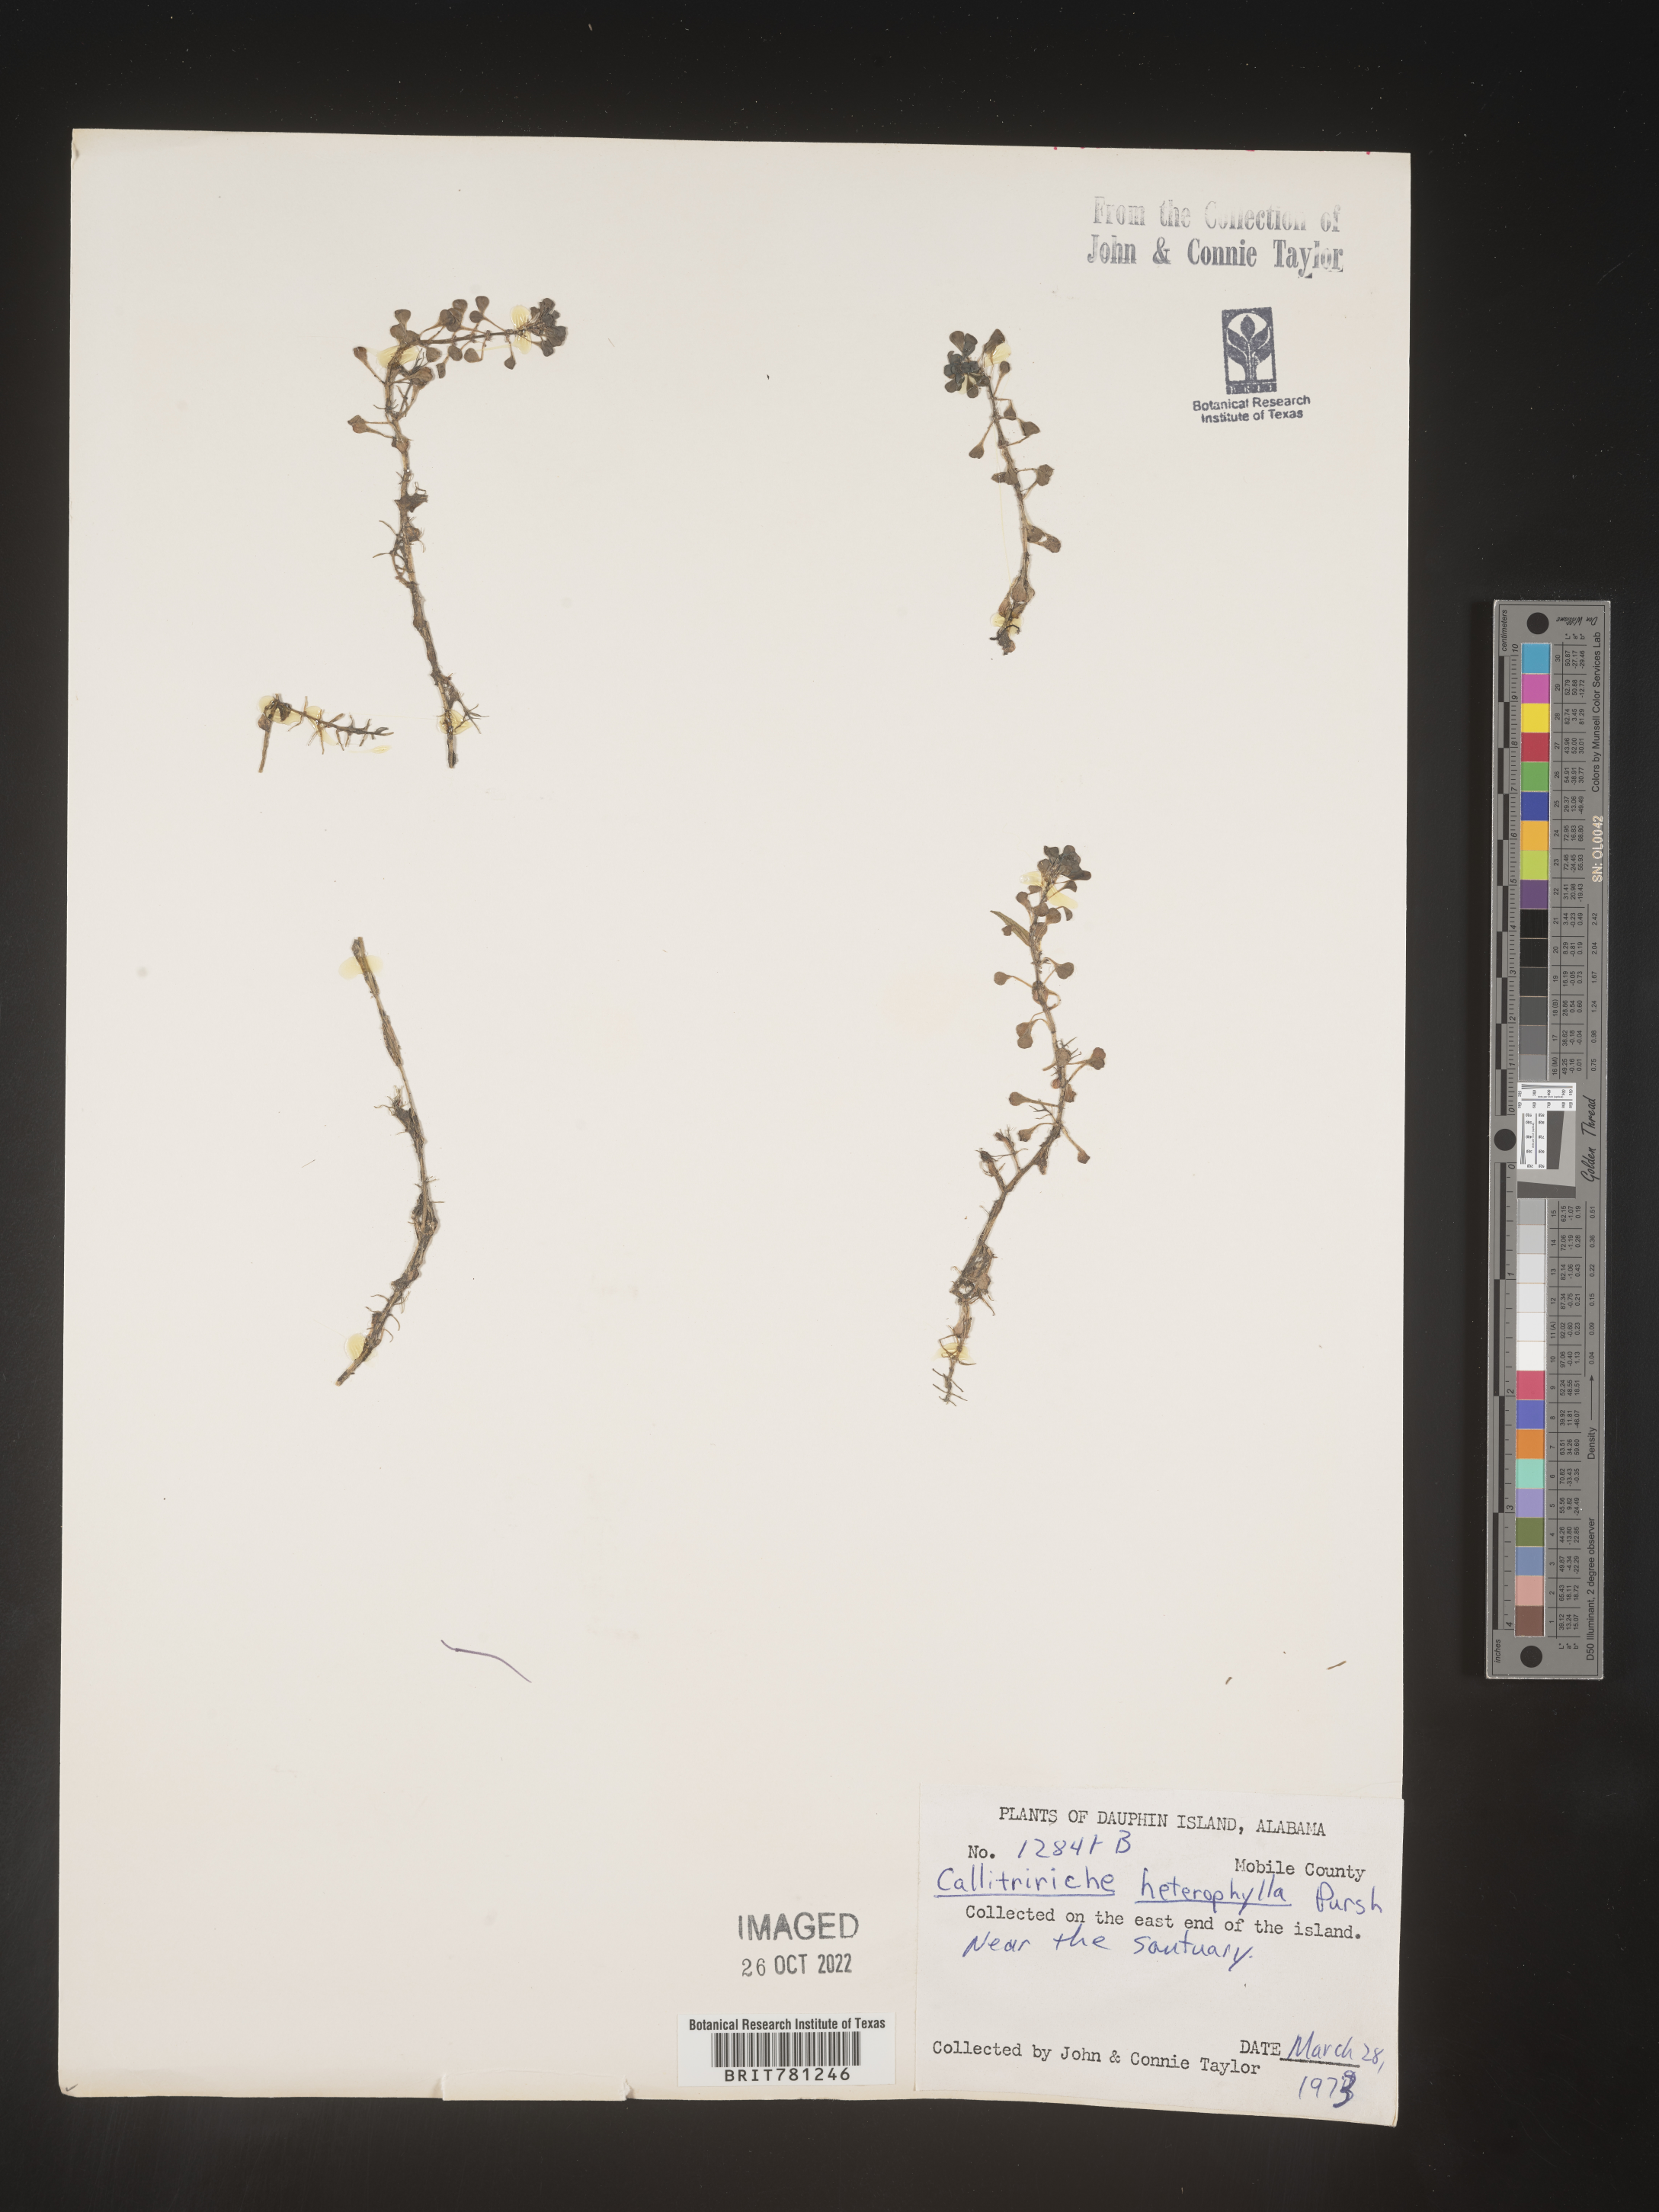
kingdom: Plantae
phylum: Tracheophyta
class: Magnoliopsida
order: Lamiales
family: Plantaginaceae
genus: Callitriche
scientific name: Callitriche heterophylla
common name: Two-headed water-starwort
